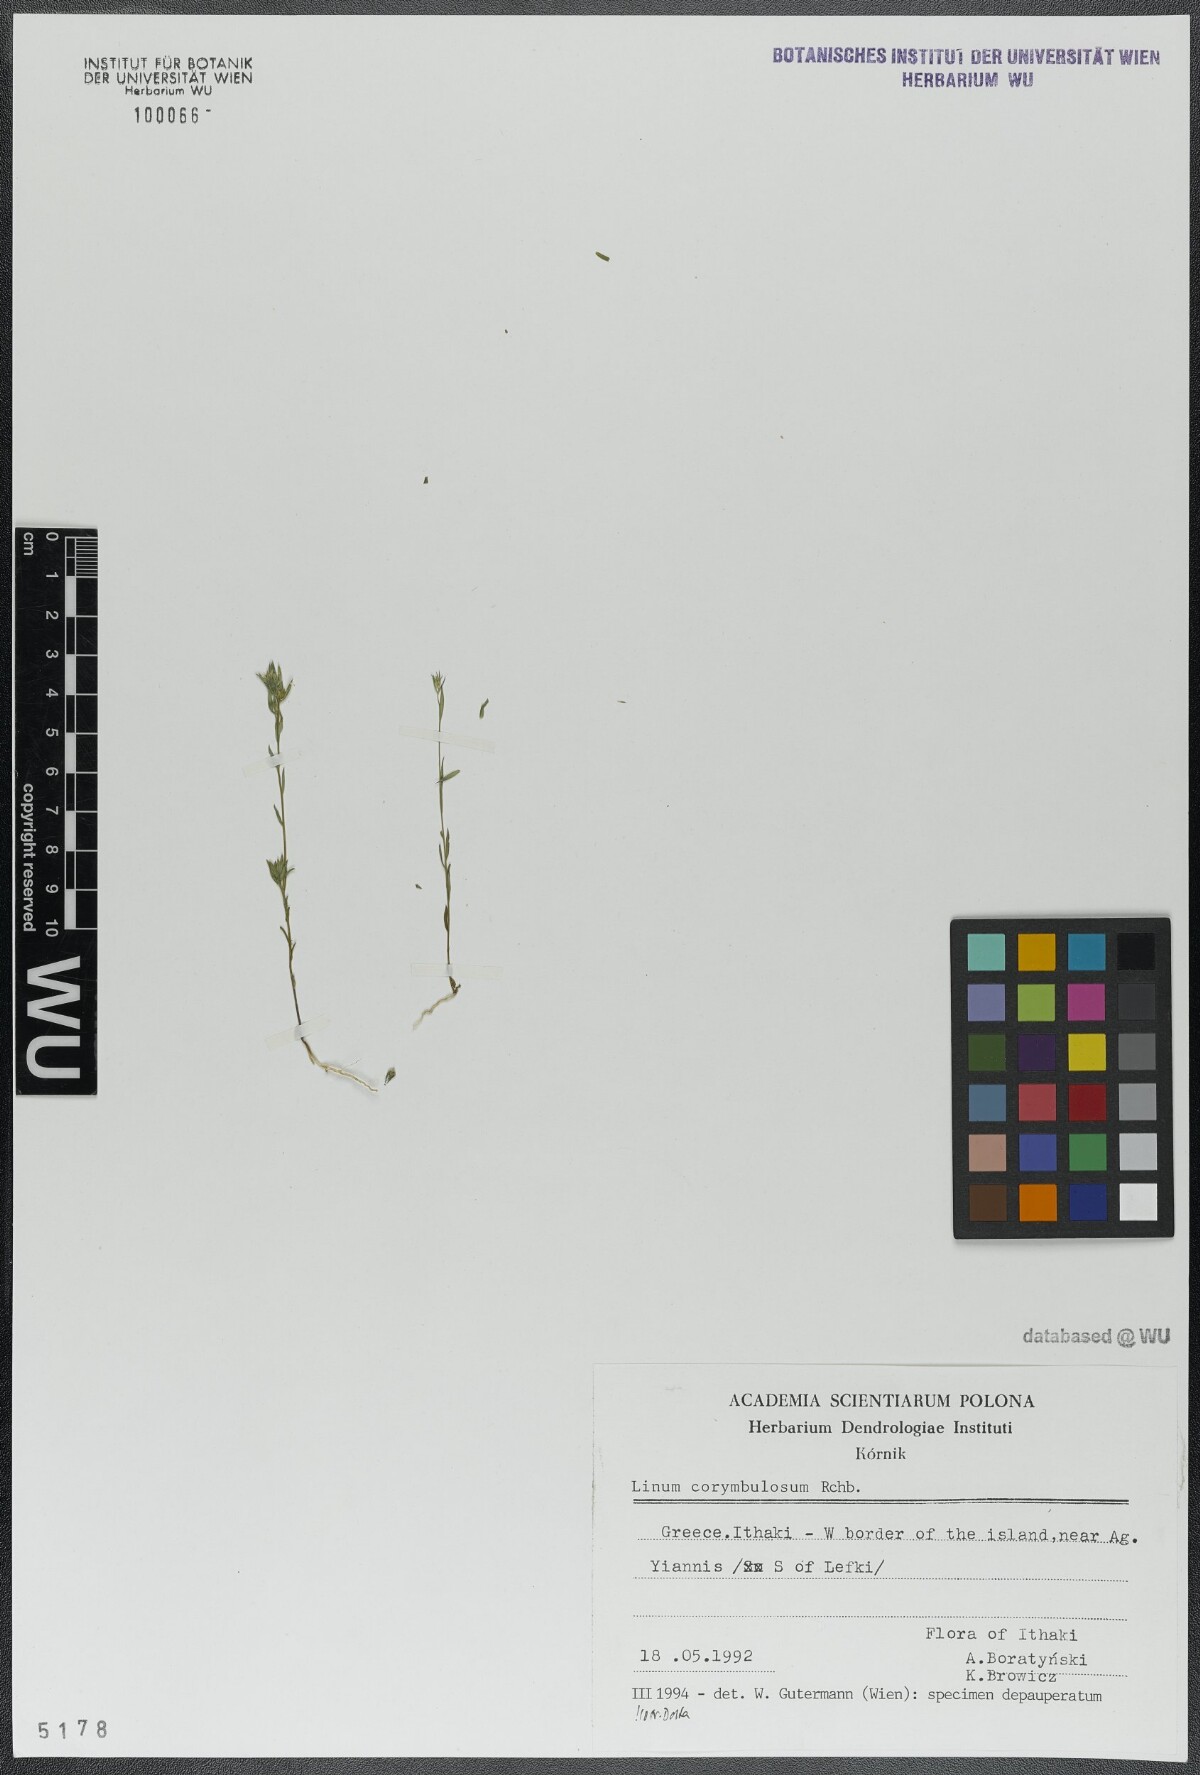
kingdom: Plantae
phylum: Tracheophyta
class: Magnoliopsida
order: Malpighiales
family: Linaceae
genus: Linum
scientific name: Linum corymbulosum
